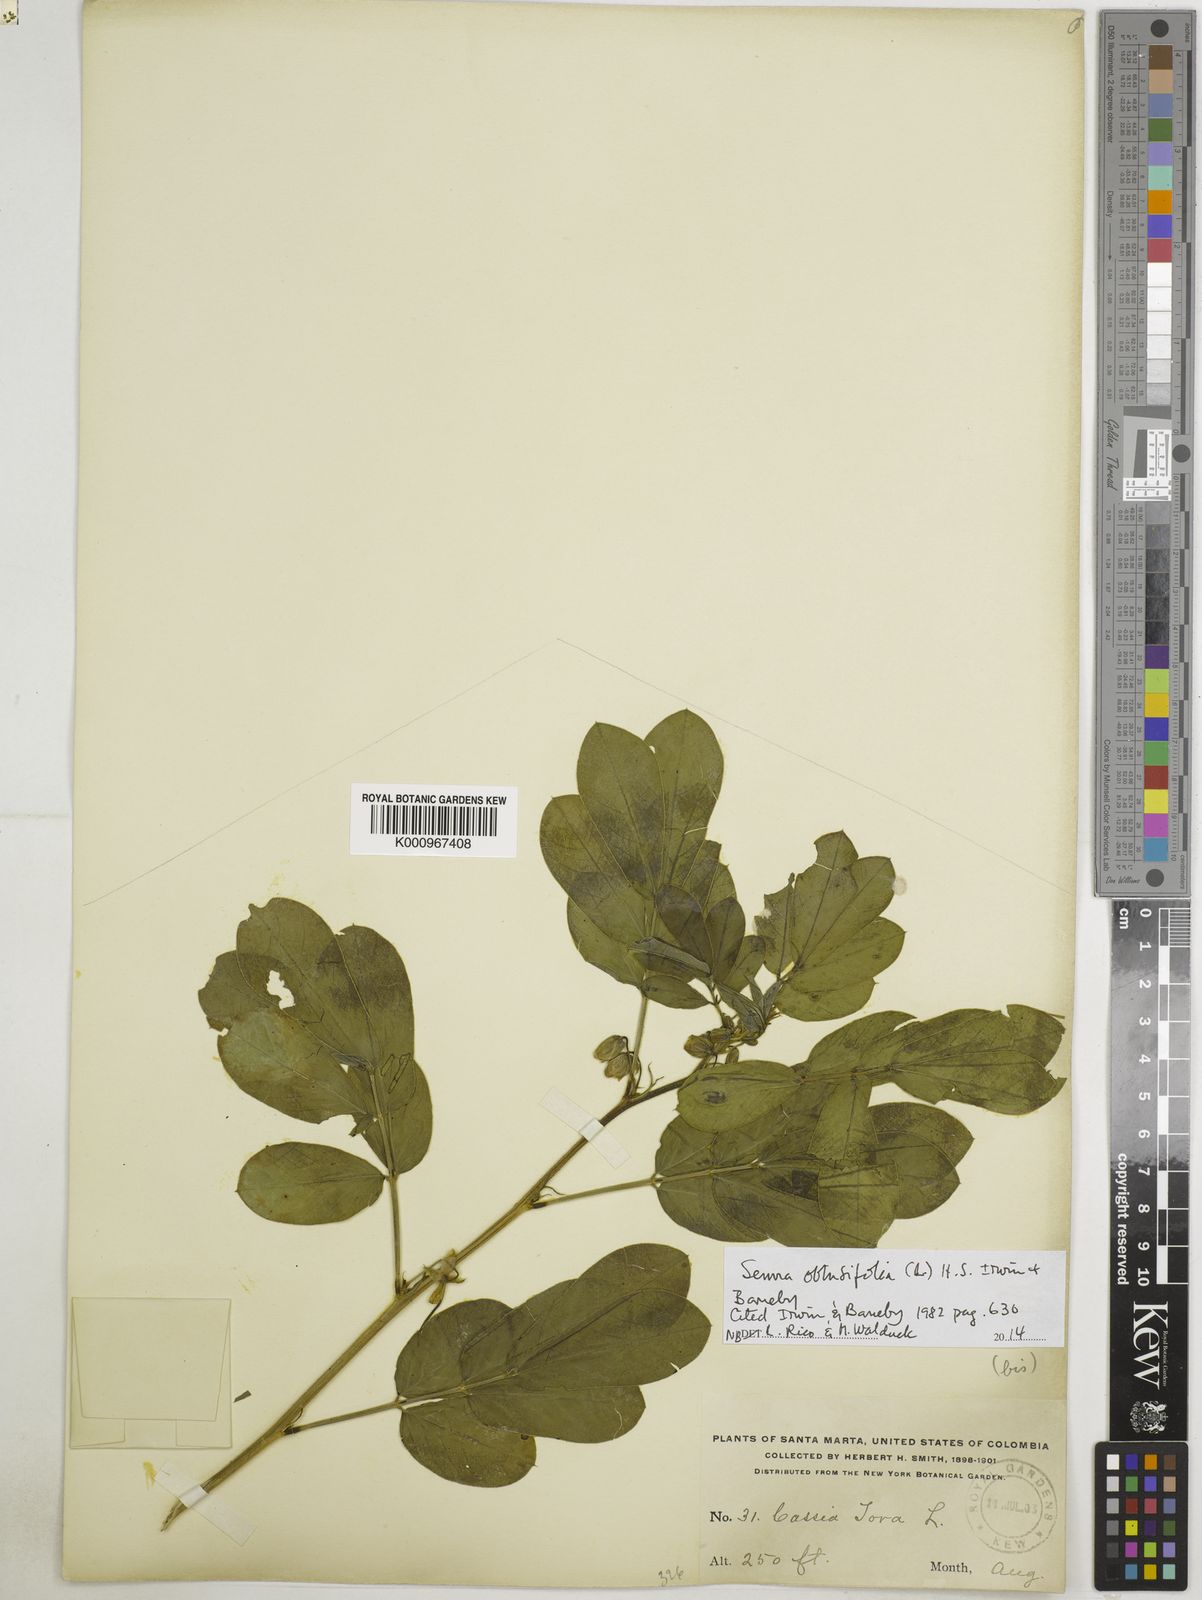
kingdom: Plantae
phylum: Tracheophyta
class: Magnoliopsida
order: Fabales
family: Fabaceae
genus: Senna
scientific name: Senna obtusifolia
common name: Java-bean
